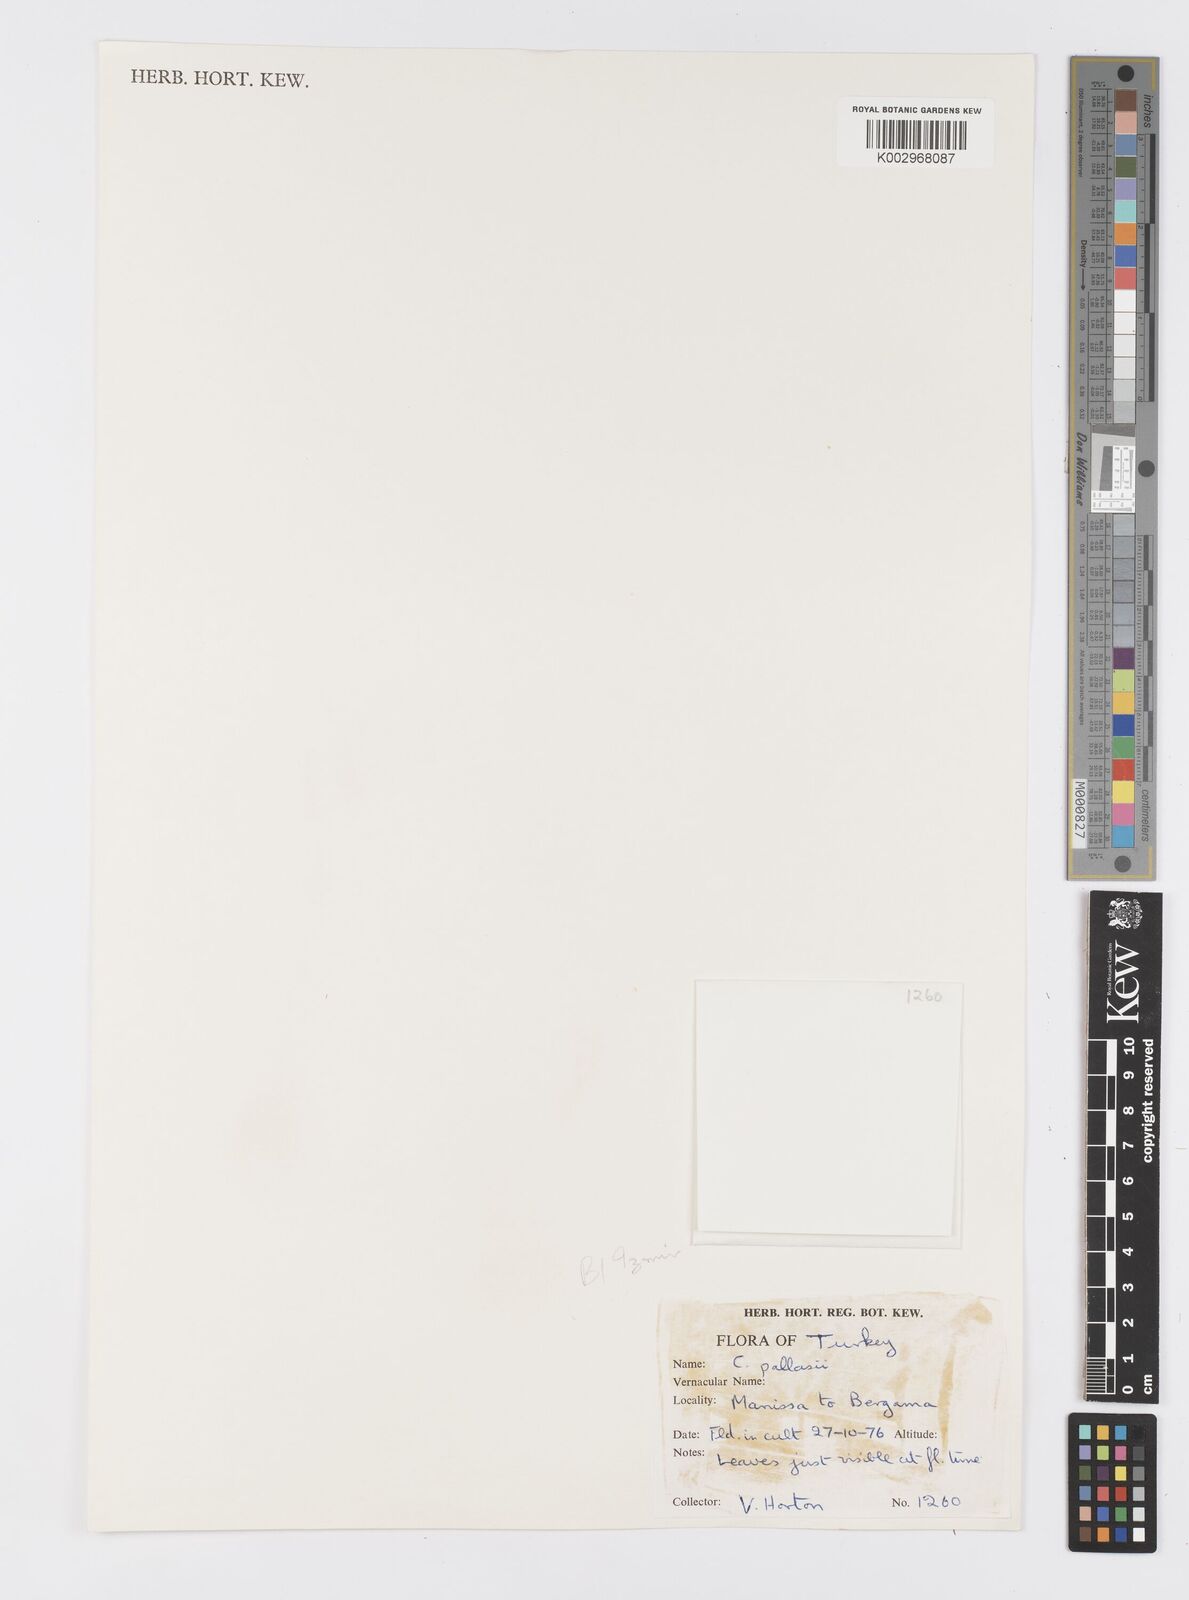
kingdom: Plantae
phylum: Tracheophyta
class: Liliopsida
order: Asparagales
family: Iridaceae
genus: Crocus
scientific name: Crocus
